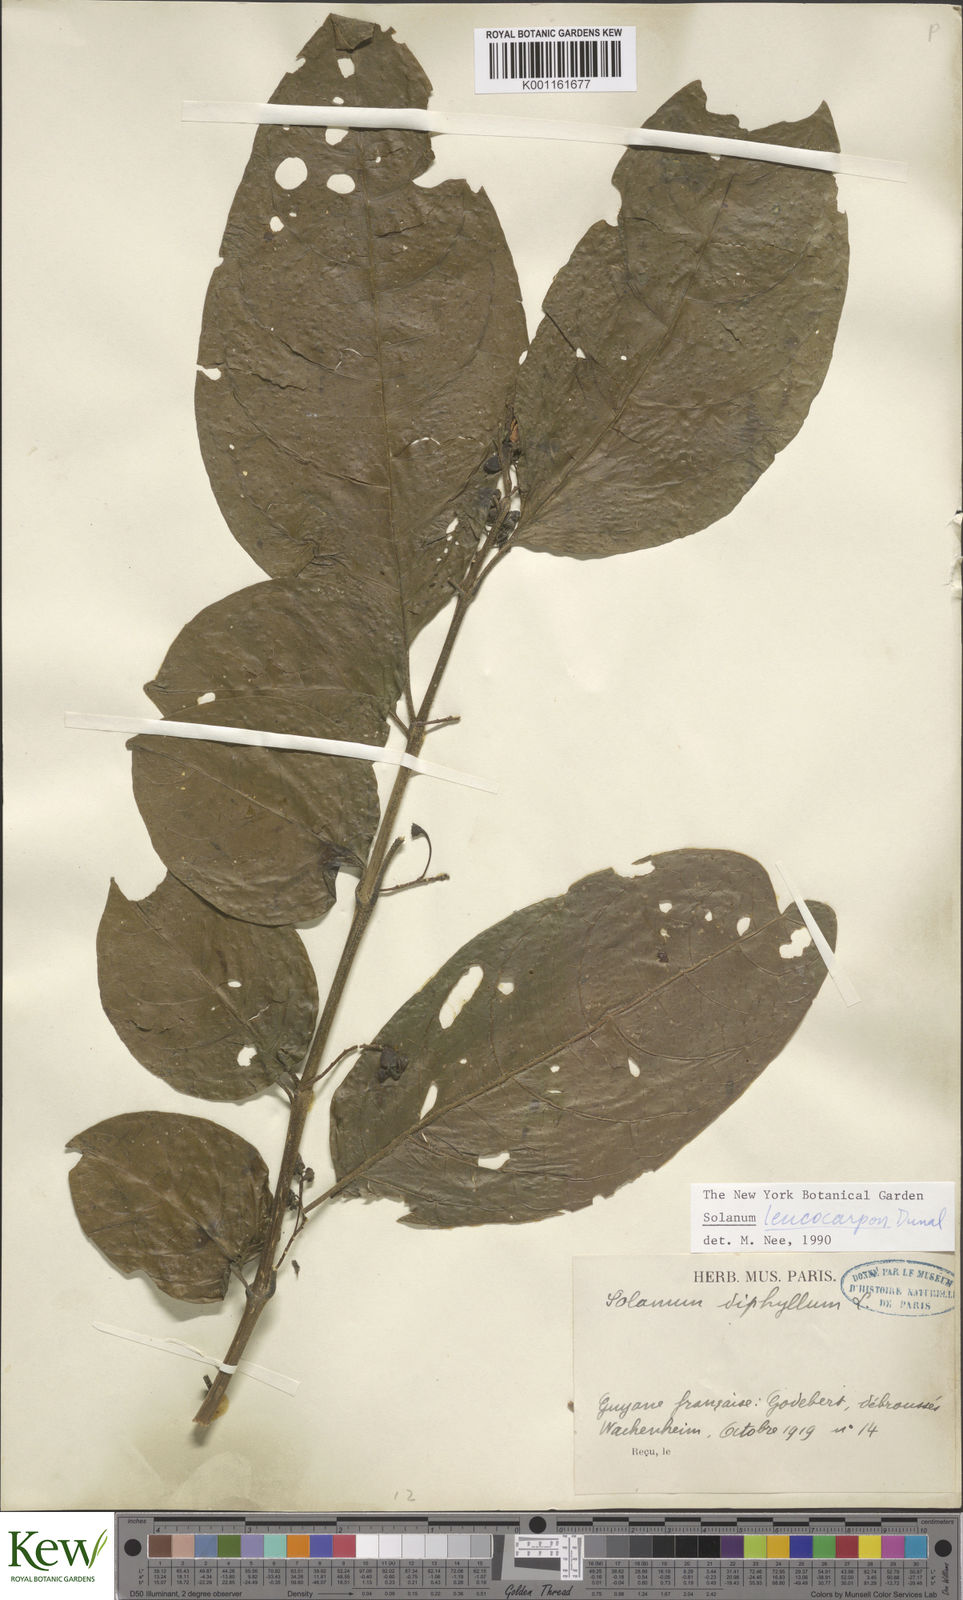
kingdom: Plantae
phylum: Tracheophyta
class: Magnoliopsida
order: Solanales
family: Solanaceae
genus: Solanum
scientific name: Solanum leucocarpon
